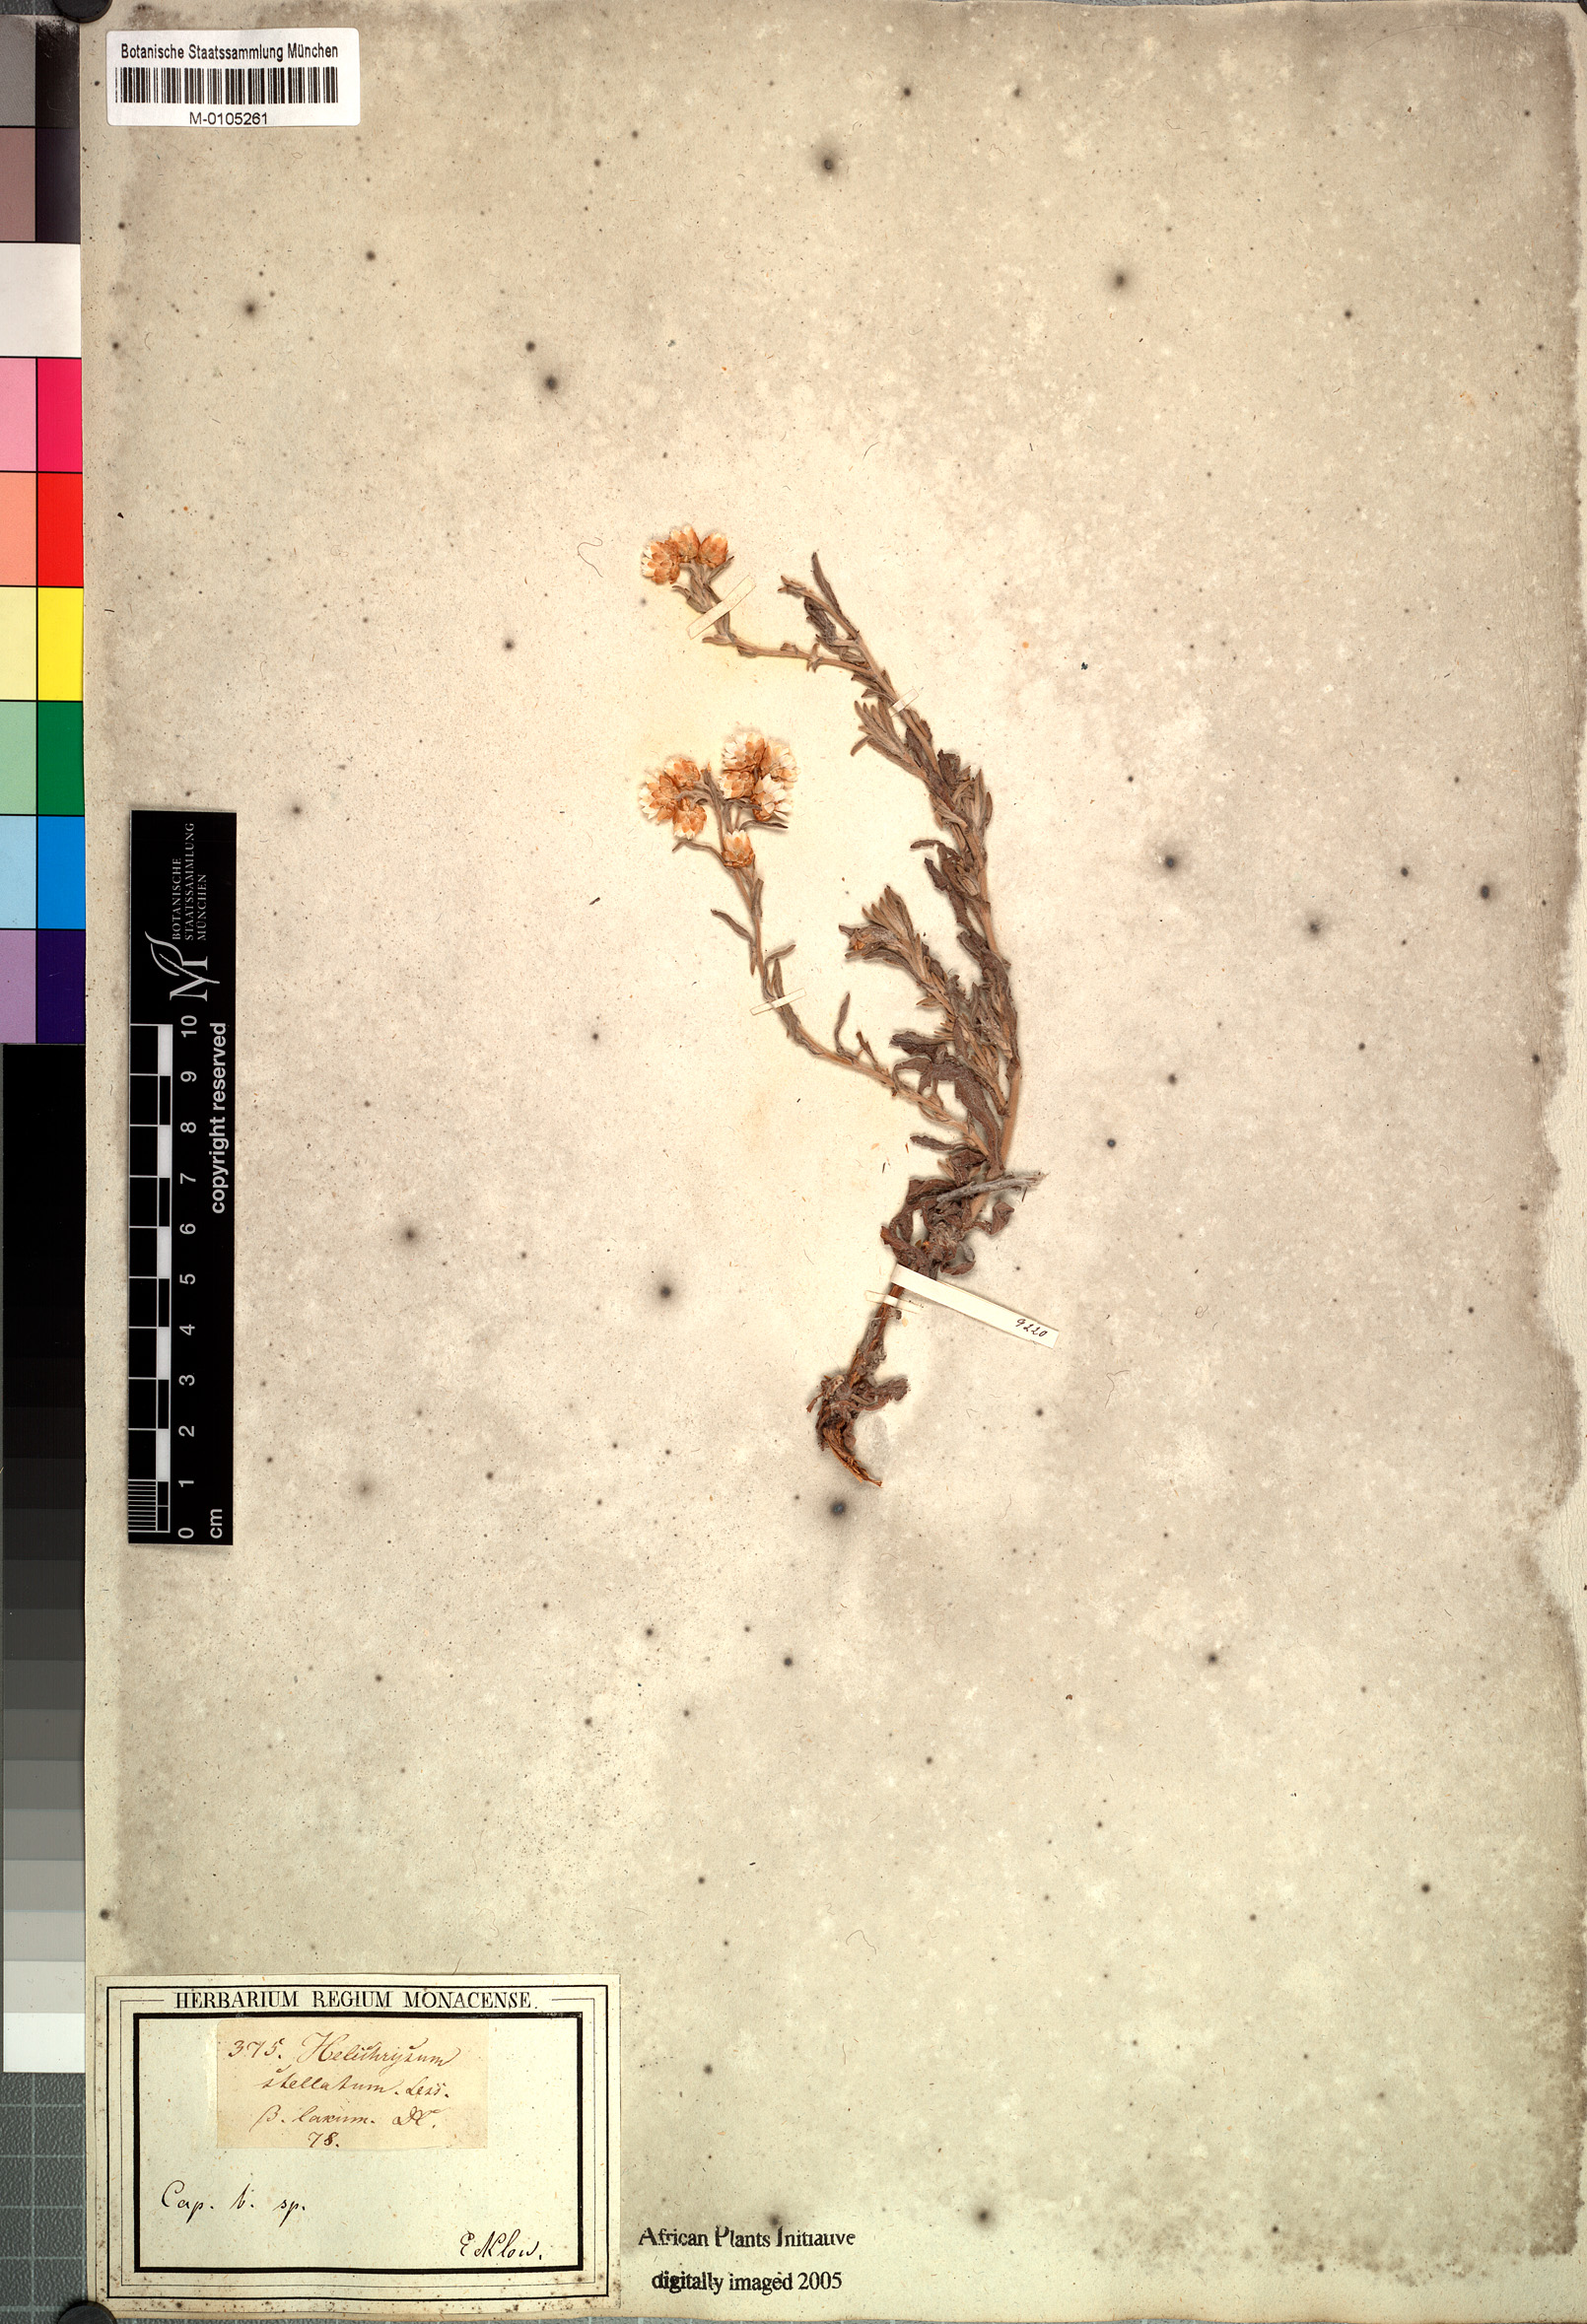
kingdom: Plantae
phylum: Tracheophyta
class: Magnoliopsida
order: Asterales
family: Asteraceae
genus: Helichrysum
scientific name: Helichrysum stellatum
